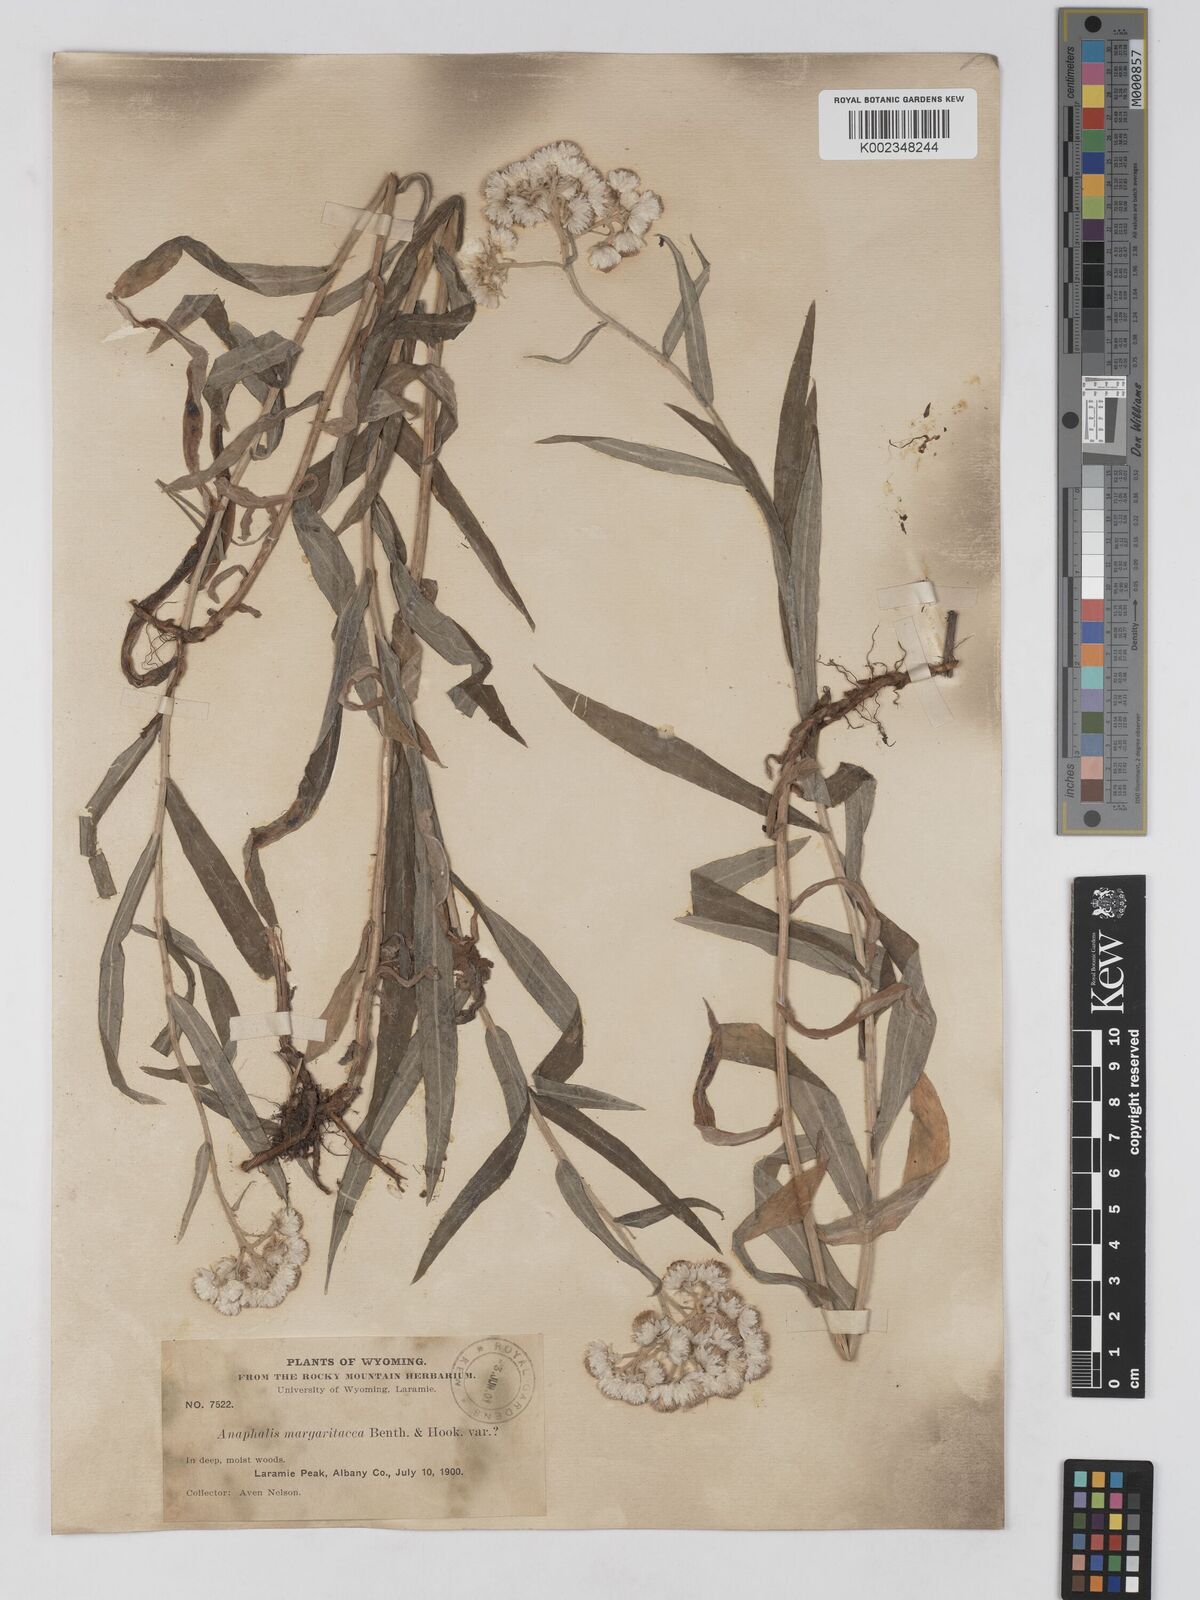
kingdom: Plantae
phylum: Tracheophyta
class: Magnoliopsida
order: Asterales
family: Asteraceae
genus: Anaphalis
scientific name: Anaphalis margaritacea
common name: Pearly everlasting
